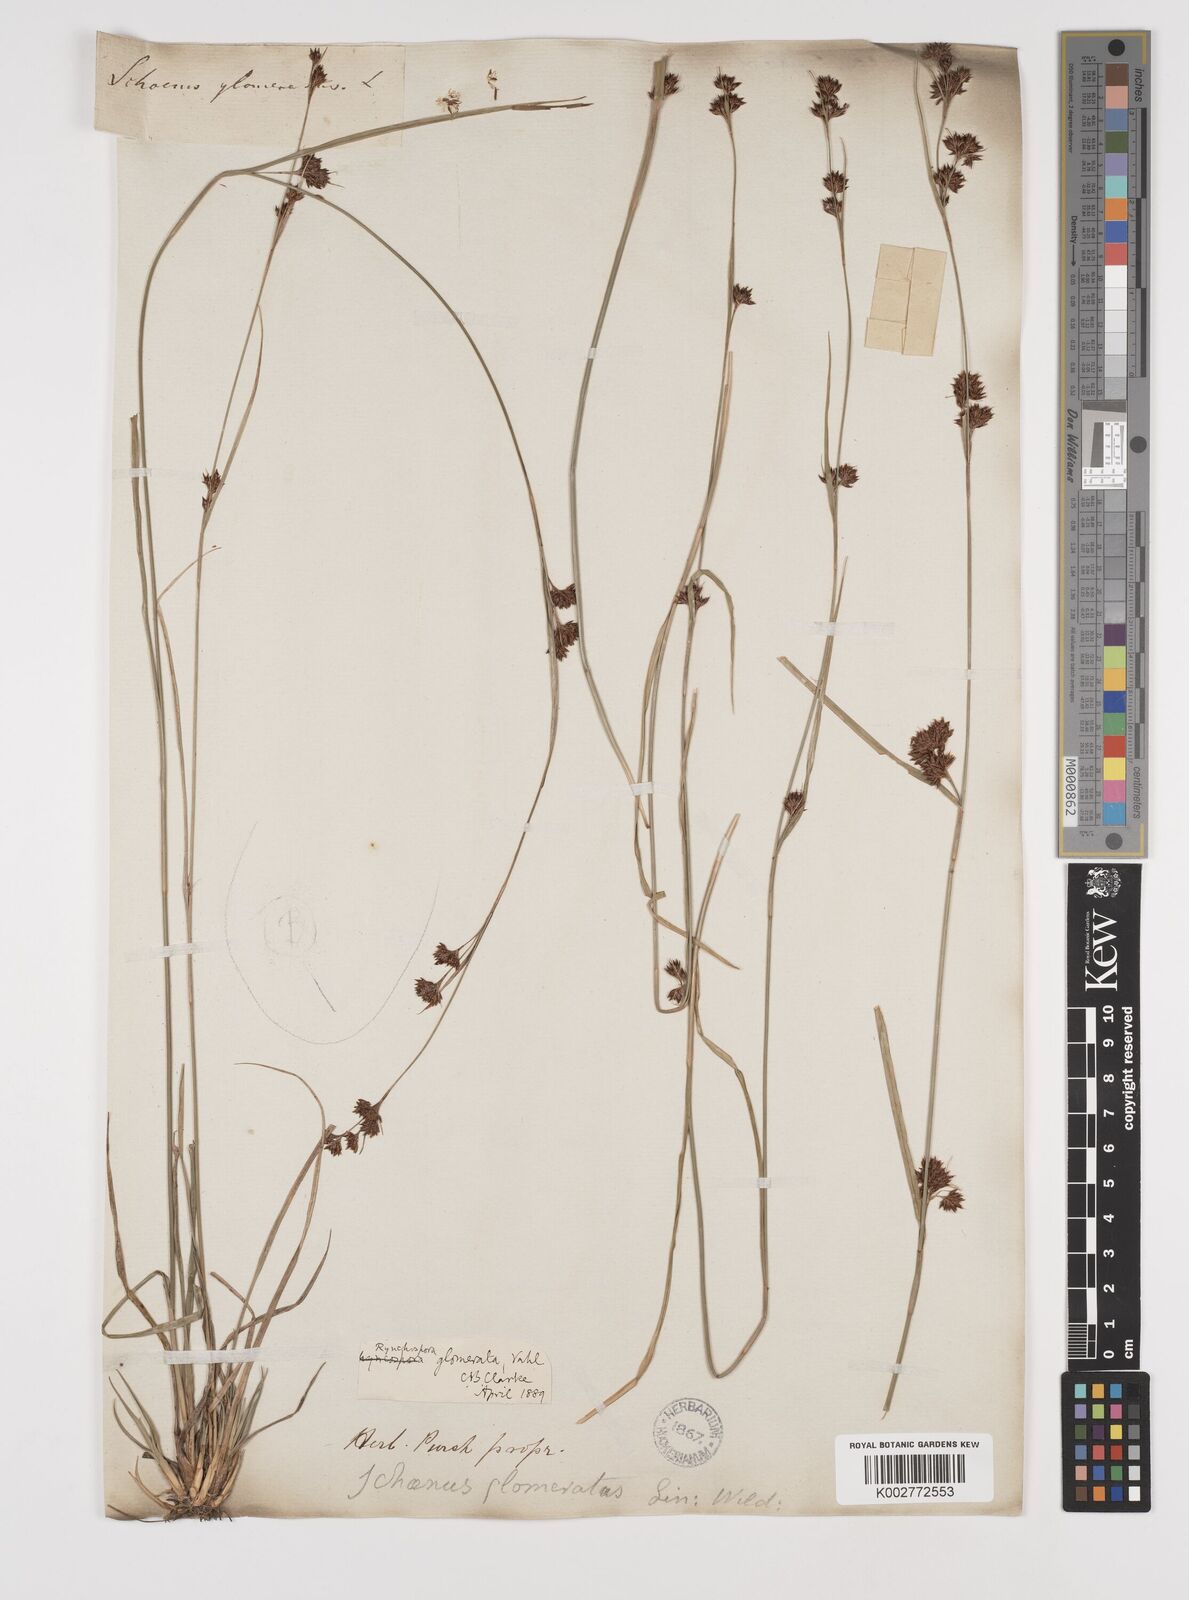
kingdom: Plantae
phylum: Tracheophyta
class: Liliopsida
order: Poales
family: Cyperaceae
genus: Rhynchospora
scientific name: Rhynchospora glomerata
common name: Cluster beak sedge
